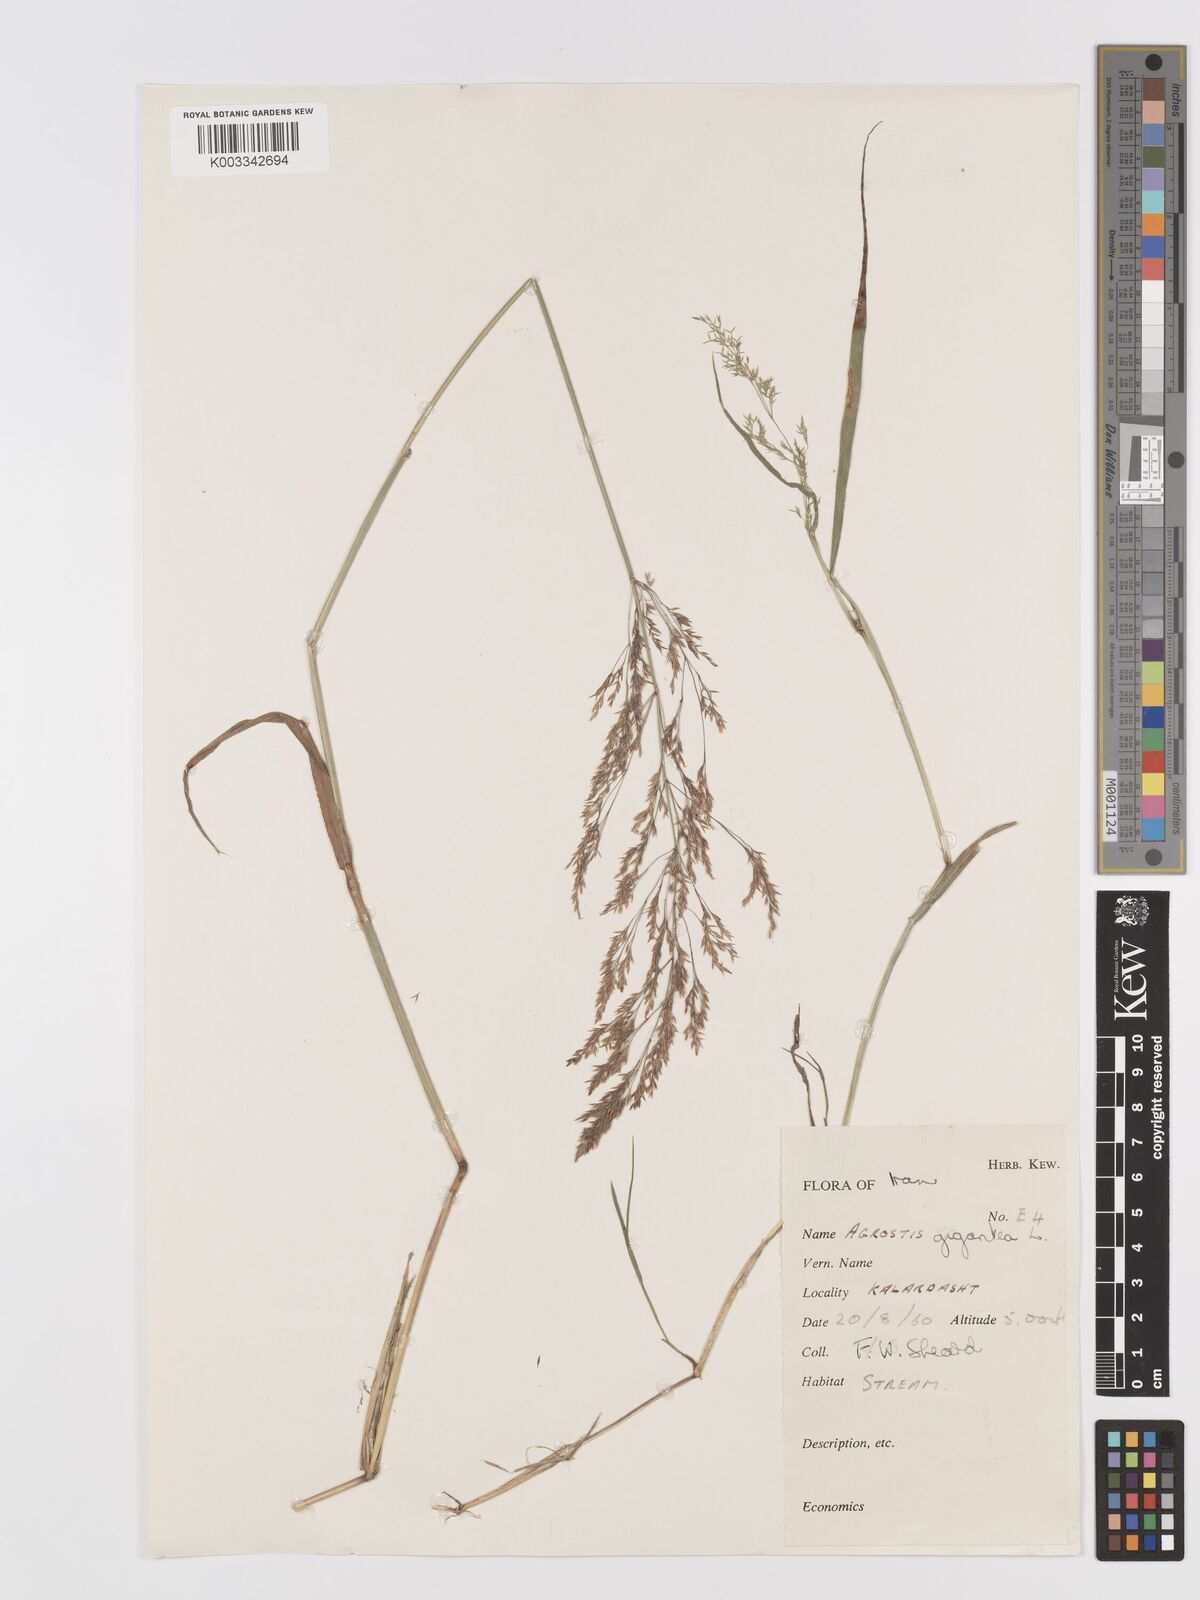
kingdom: Plantae
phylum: Tracheophyta
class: Liliopsida
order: Poales
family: Poaceae
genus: Agrostis
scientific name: Agrostis gigantea
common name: Black bent
